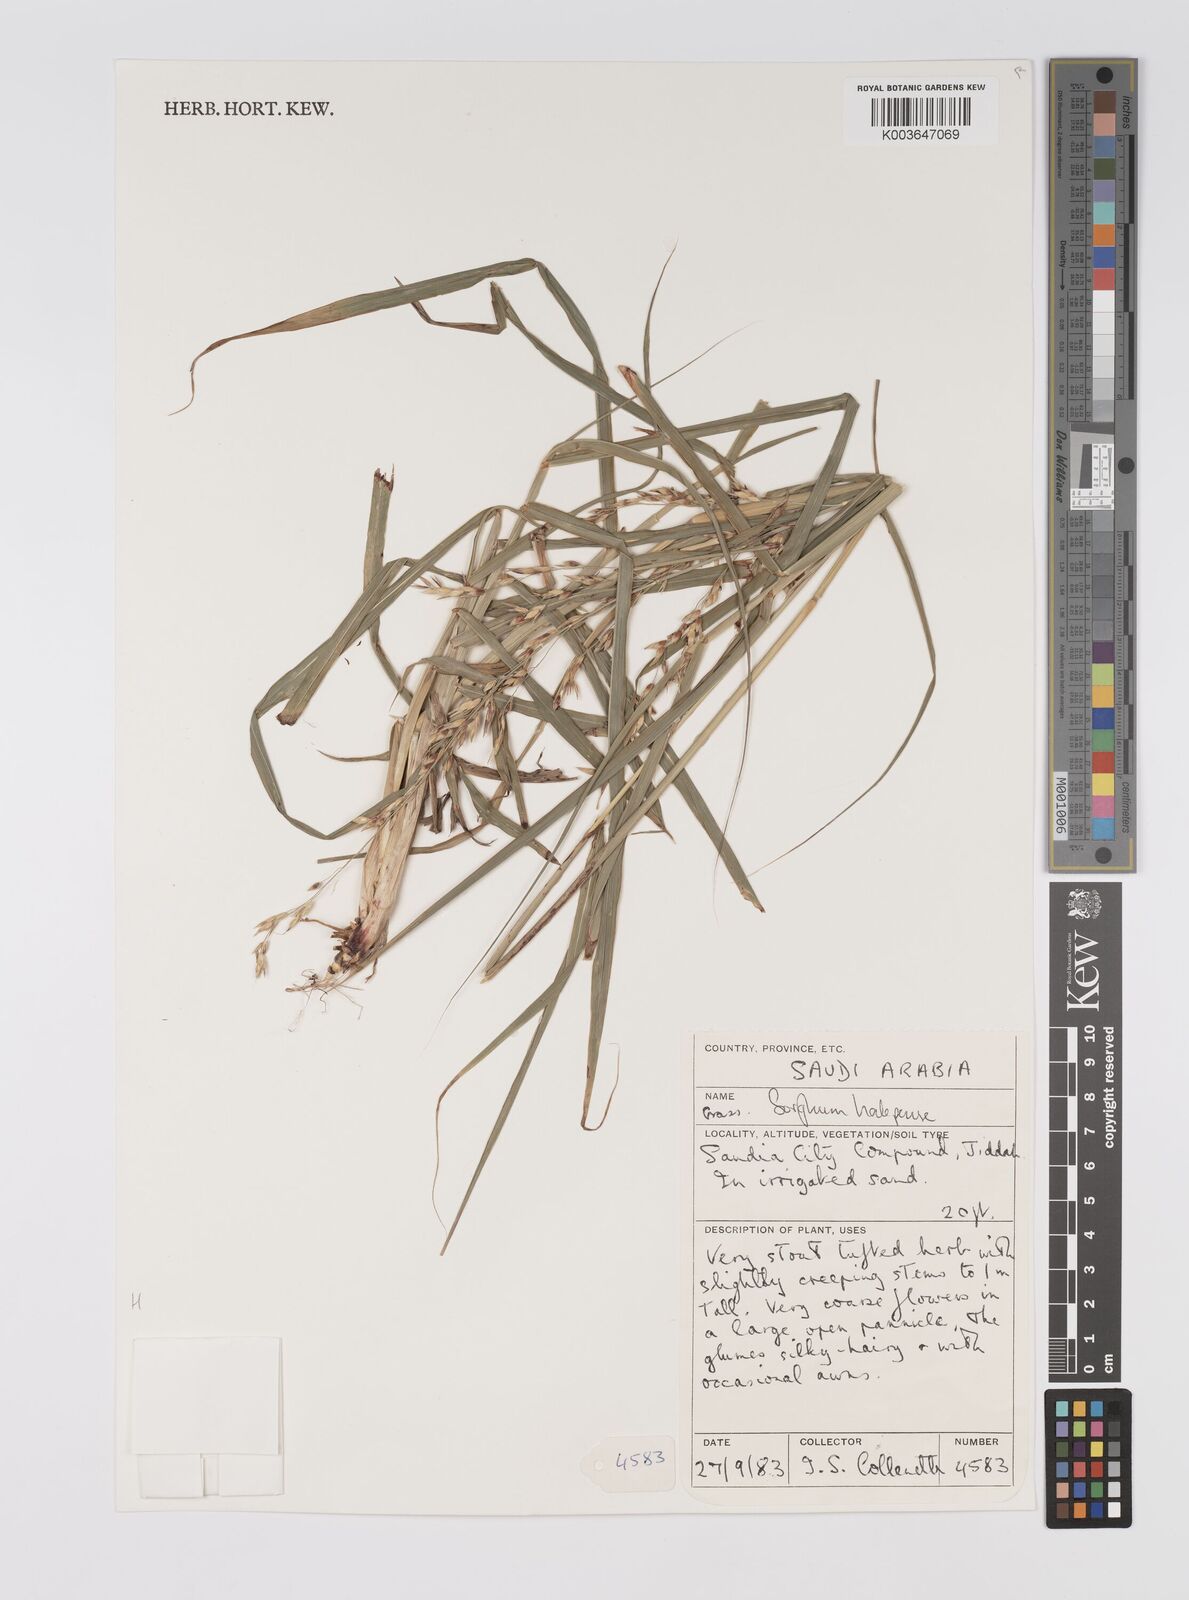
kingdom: Plantae
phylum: Tracheophyta
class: Liliopsida
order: Poales
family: Poaceae
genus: Sorghum
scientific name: Sorghum halepense
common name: Johnson-grass
